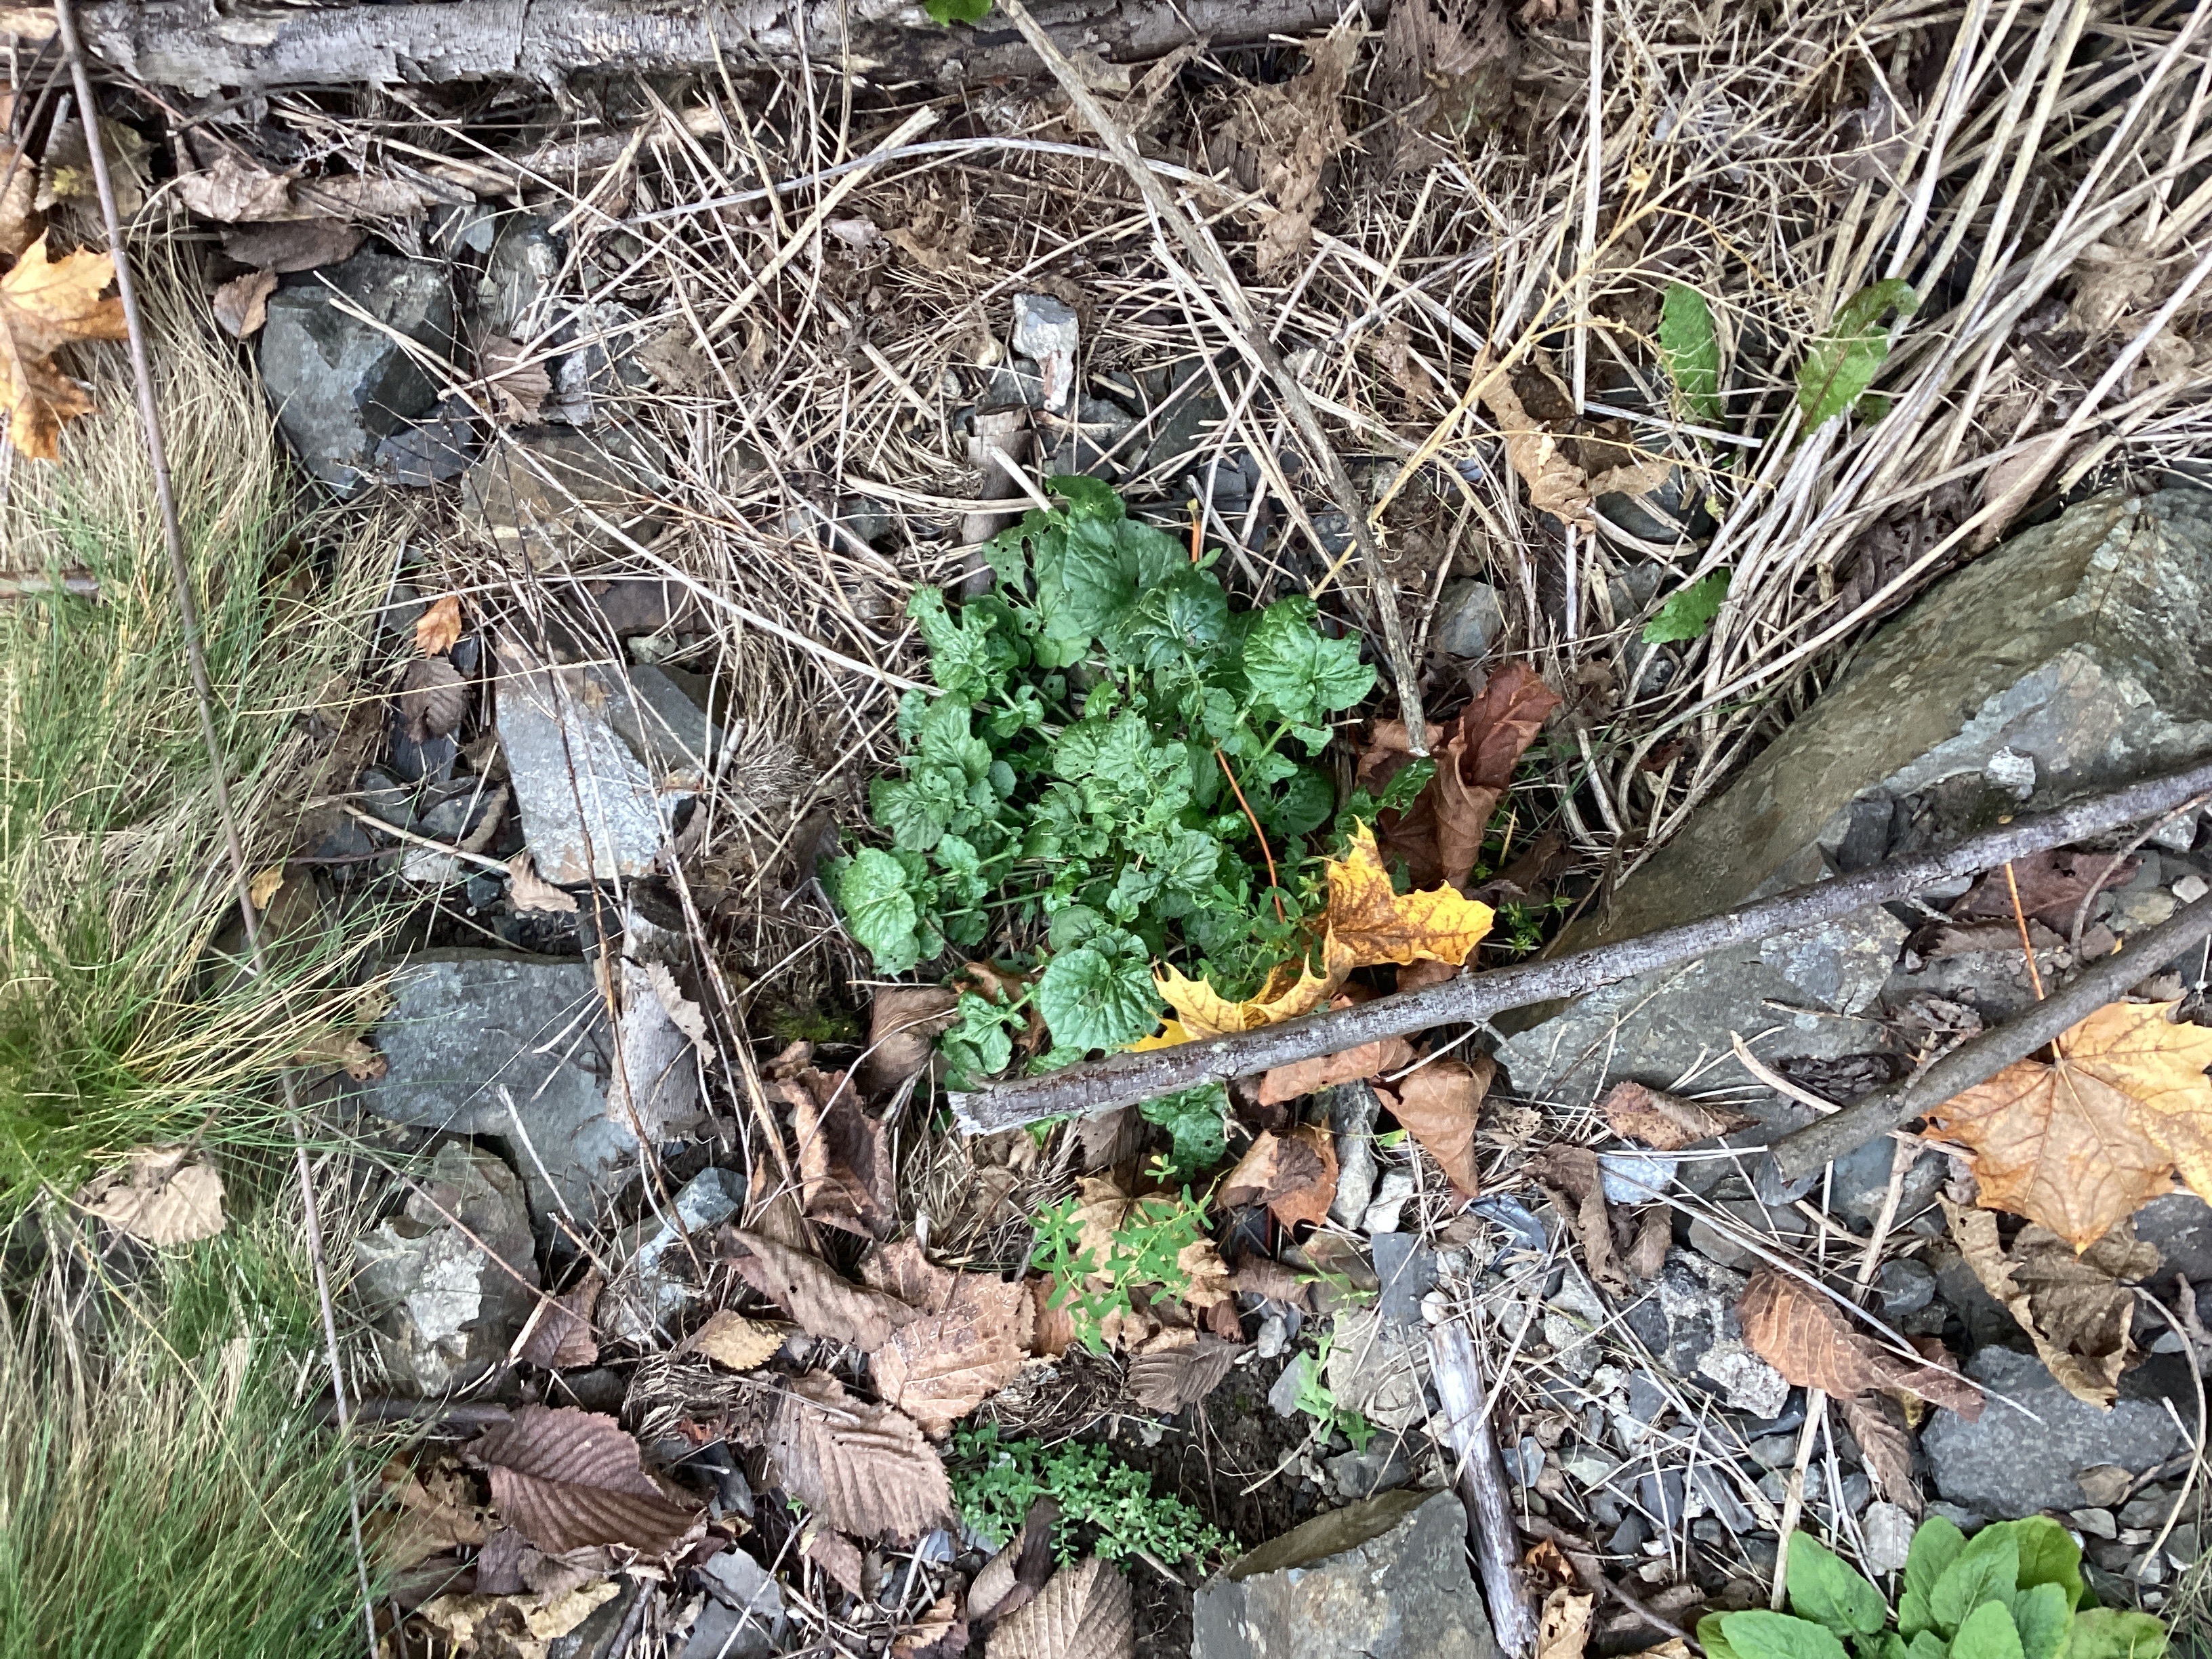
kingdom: Plantae
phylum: Tracheophyta
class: Magnoliopsida
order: Brassicales
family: Brassicaceae
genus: Barbarea
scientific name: Barbarea vulgaris
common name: vinterkarse
